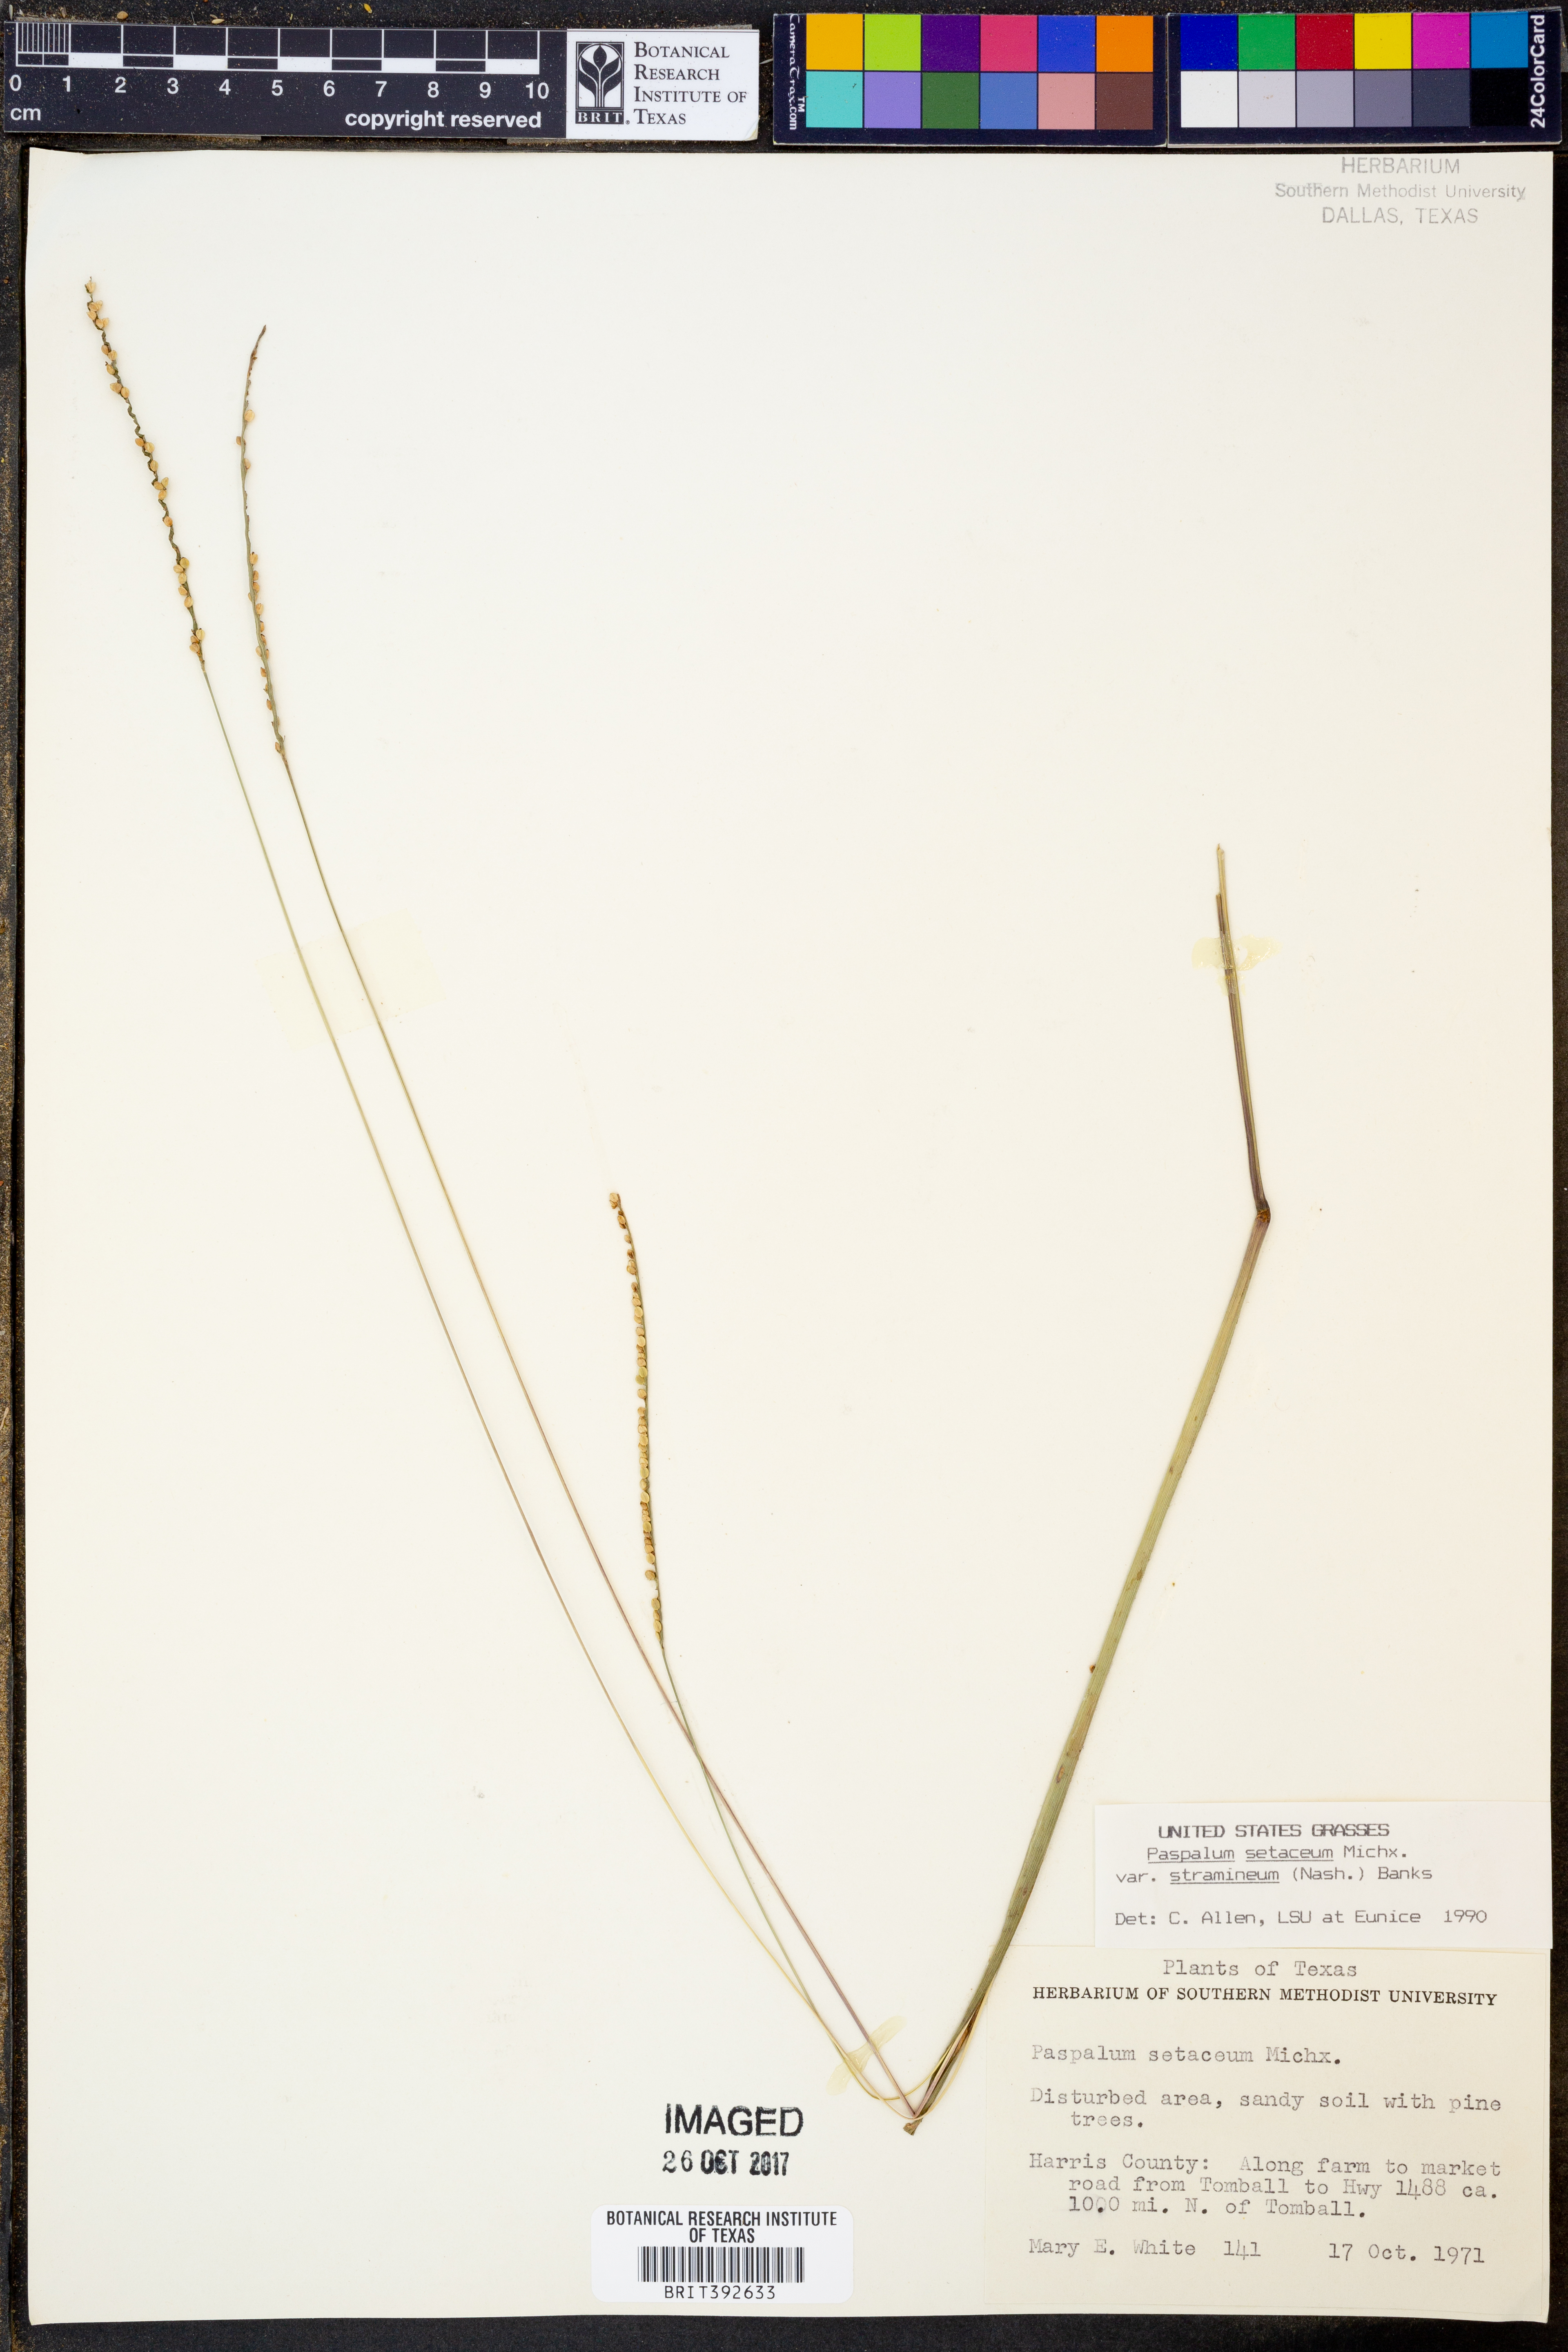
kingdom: Plantae
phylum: Tracheophyta
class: Liliopsida
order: Poales
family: Poaceae
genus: Paspalum
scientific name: Paspalum setaceum
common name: Slender paspalum
